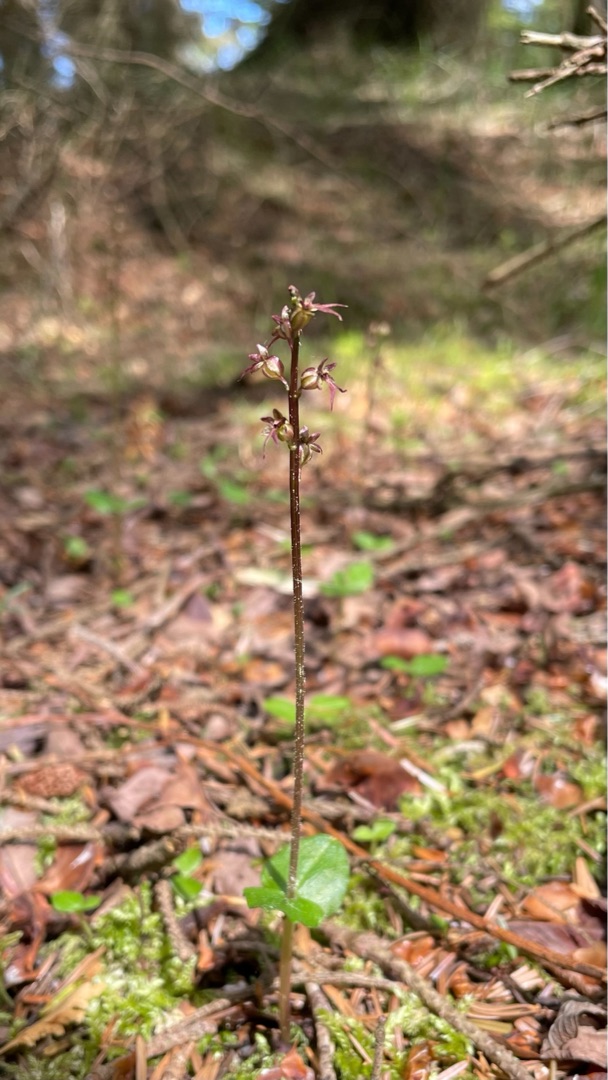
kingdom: Plantae
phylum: Tracheophyta
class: Liliopsida
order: Asparagales
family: Orchidaceae
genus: Neottia
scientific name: Neottia cordata
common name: Hjertebladet fliglæbe
